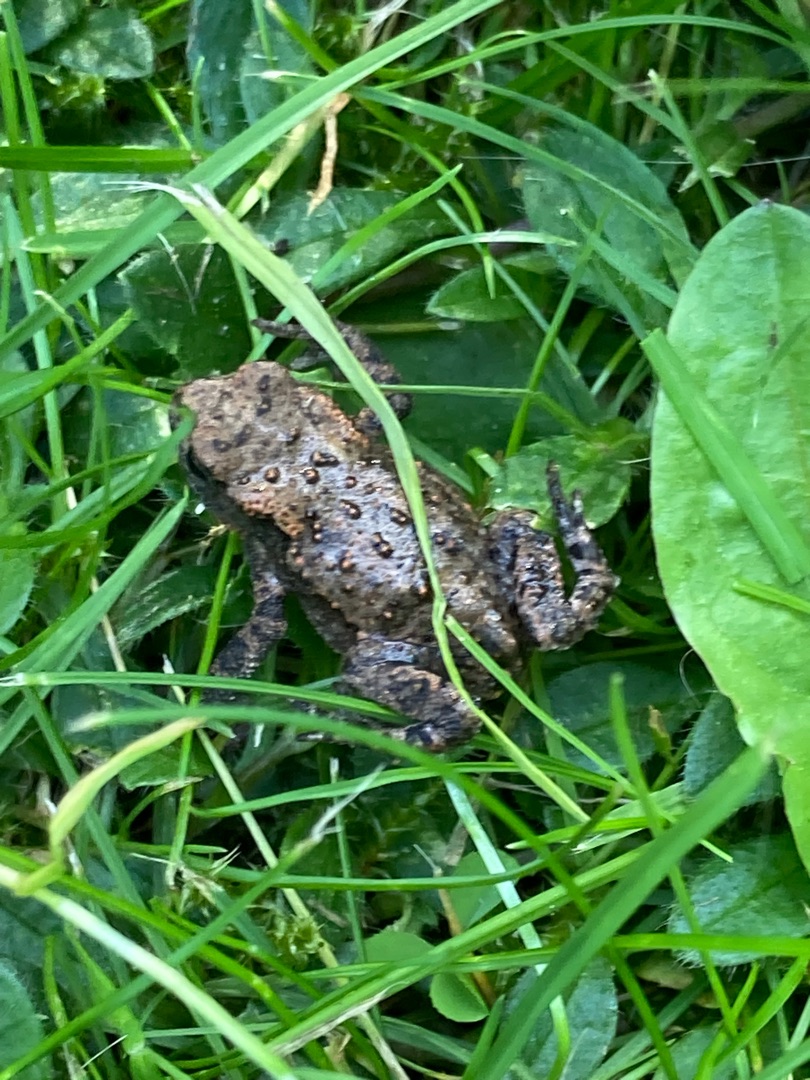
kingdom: Animalia
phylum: Chordata
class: Amphibia
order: Anura
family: Bufonidae
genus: Bufo
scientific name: Bufo bufo
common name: Skrubtudse
